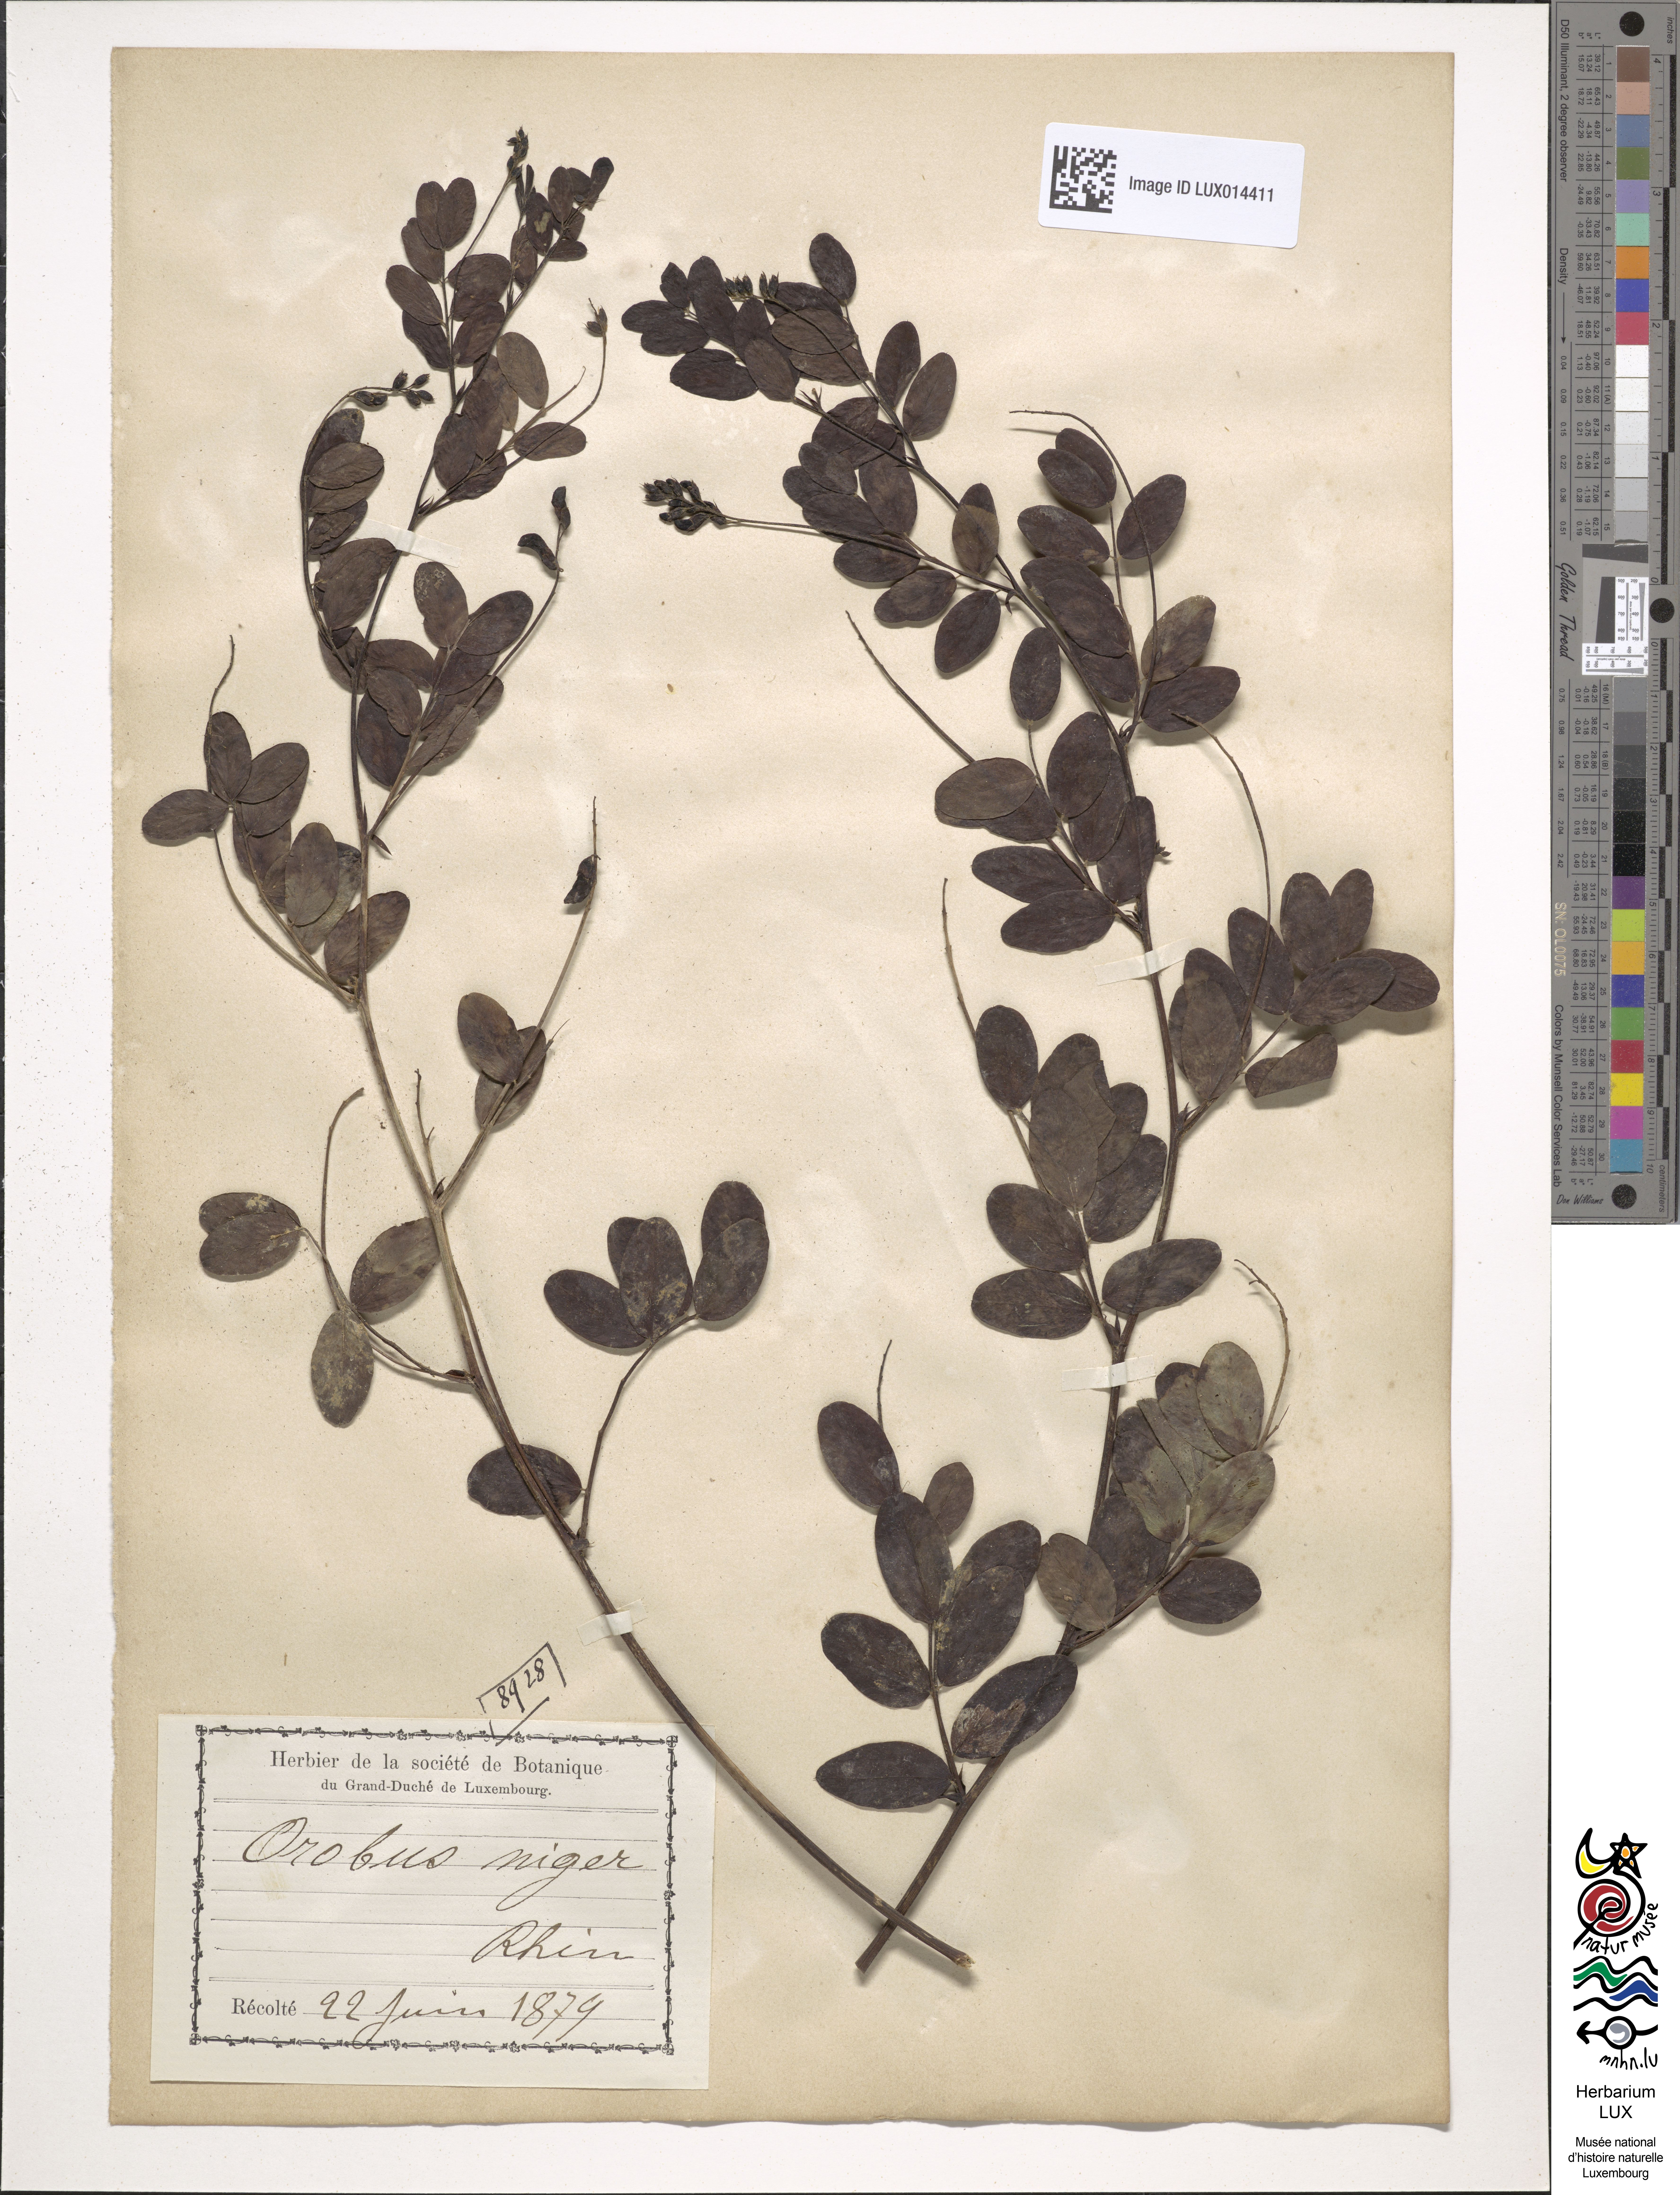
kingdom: Plantae
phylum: Tracheophyta
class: Magnoliopsida
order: Fabales
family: Fabaceae
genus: Lathyrus
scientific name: Lathyrus niger
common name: Black pea
